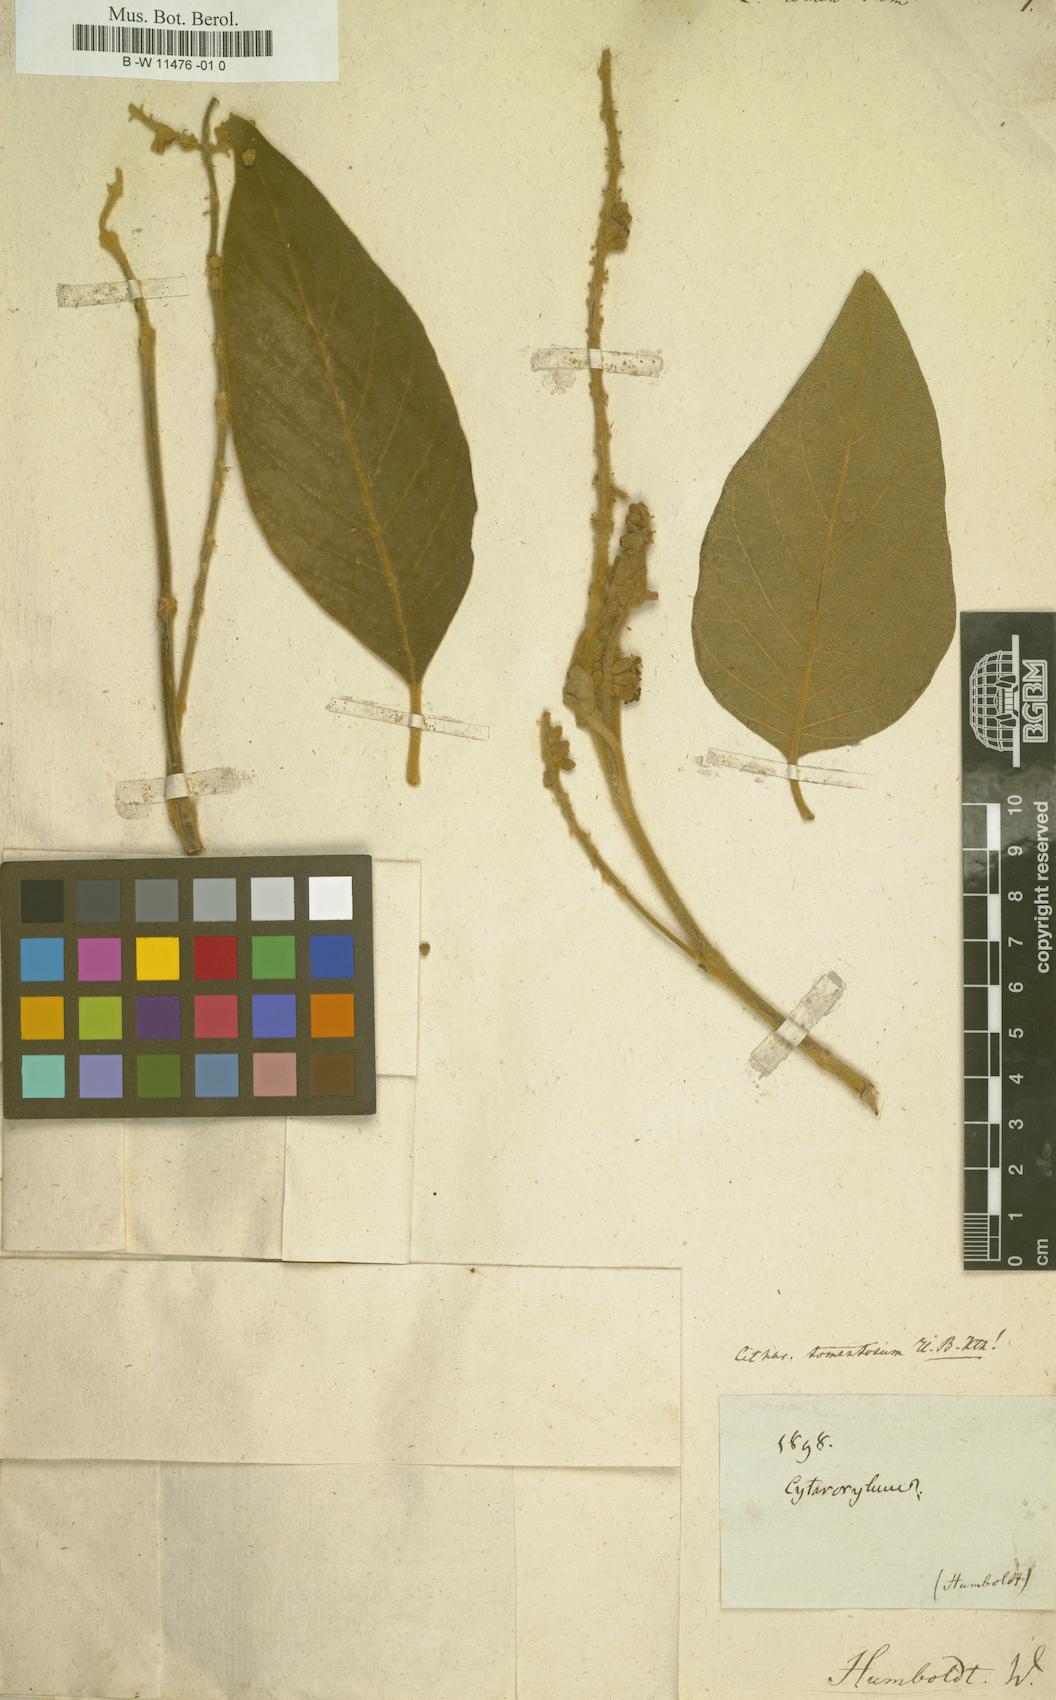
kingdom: Plantae
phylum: Tracheophyta
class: Magnoliopsida
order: Lamiales
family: Verbenaceae
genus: Citharexylum
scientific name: Citharexylum
